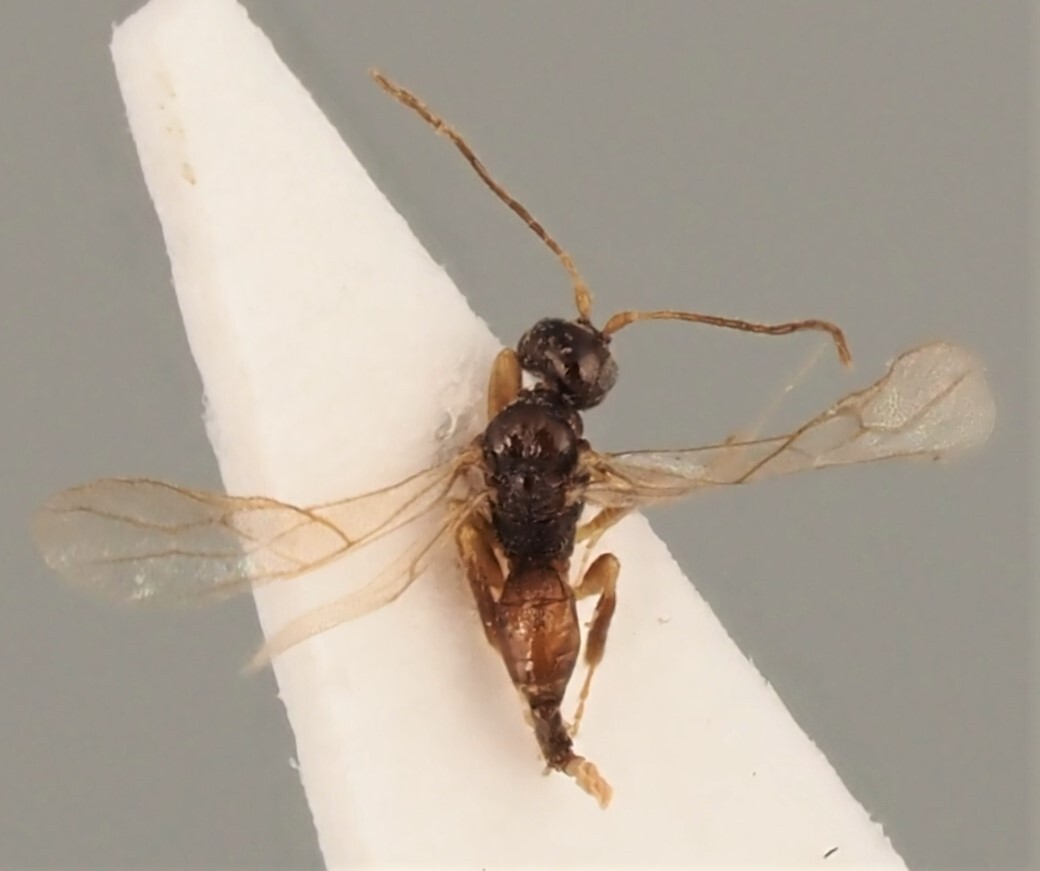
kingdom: Animalia
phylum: Arthropoda
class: Insecta
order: Hymenoptera
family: Braconidae
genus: Proacrisis
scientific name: Proacrisis rarus
